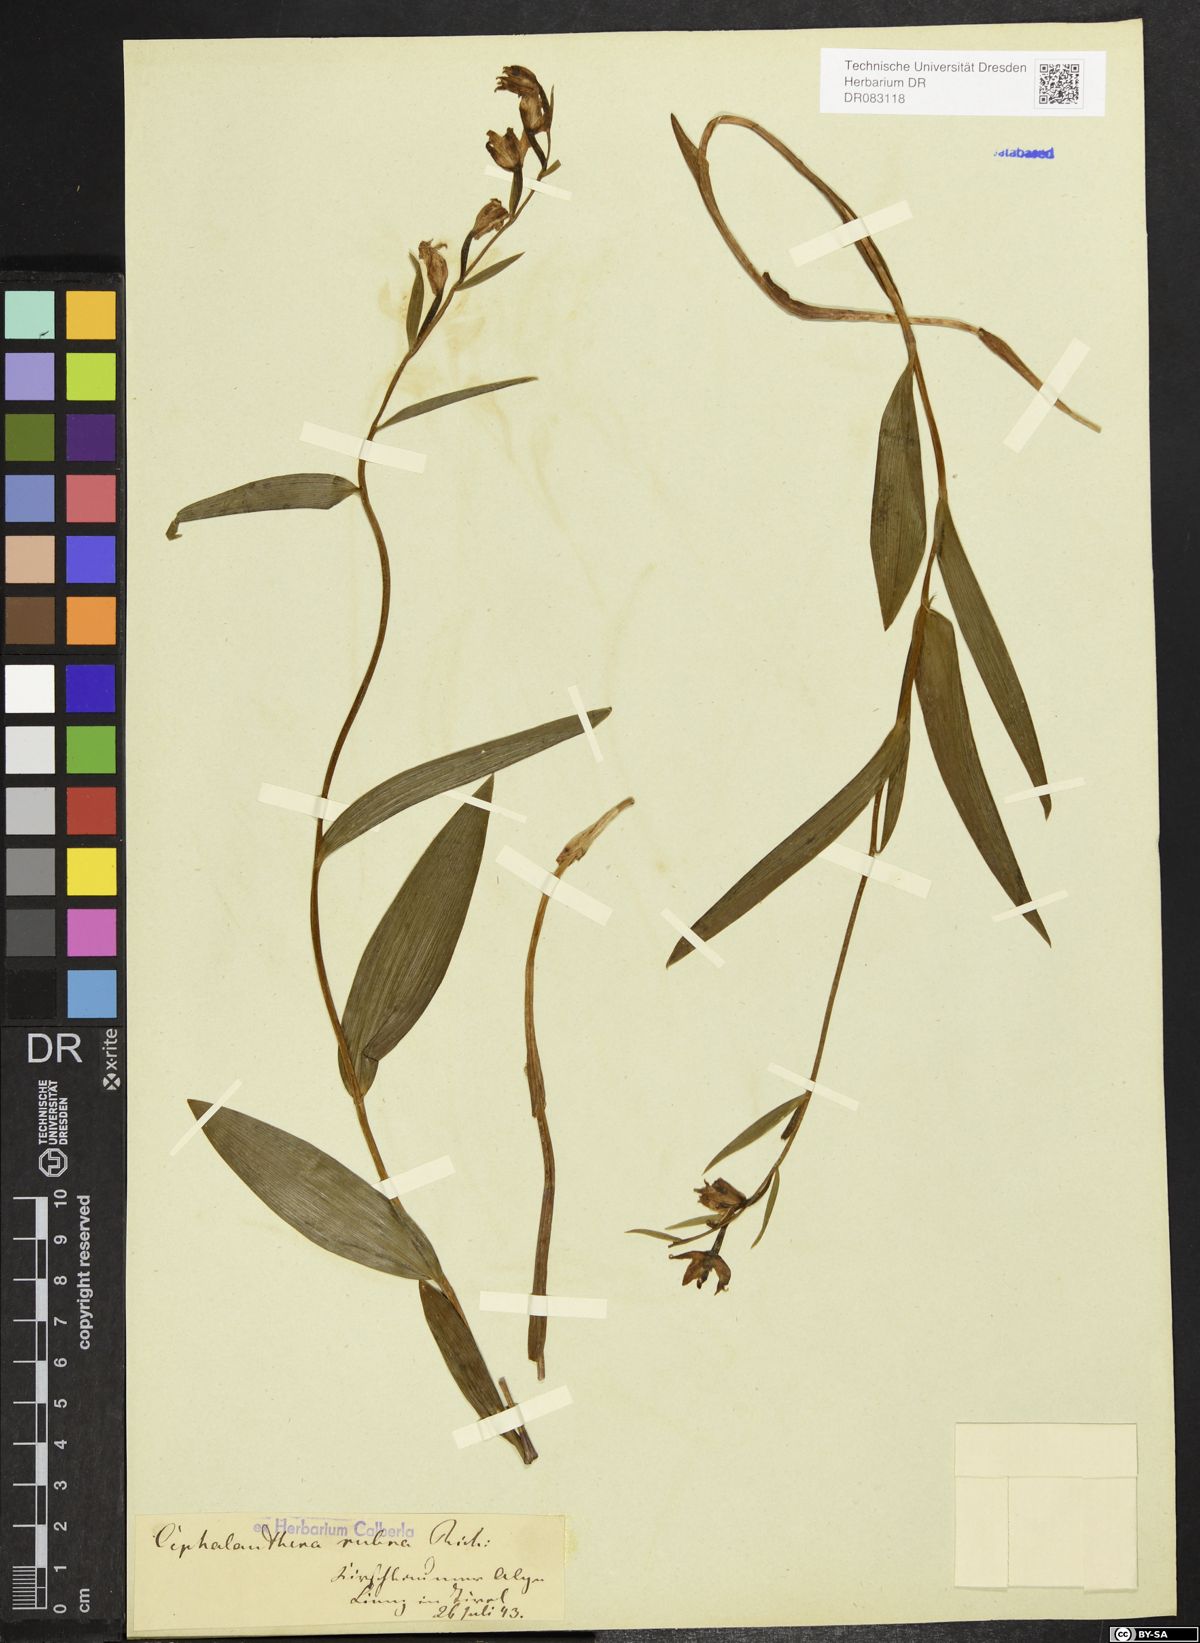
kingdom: Plantae
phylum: Tracheophyta
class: Liliopsida
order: Asparagales
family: Orchidaceae
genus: Cephalanthera
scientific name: Cephalanthera rubra
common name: Red helleborine
